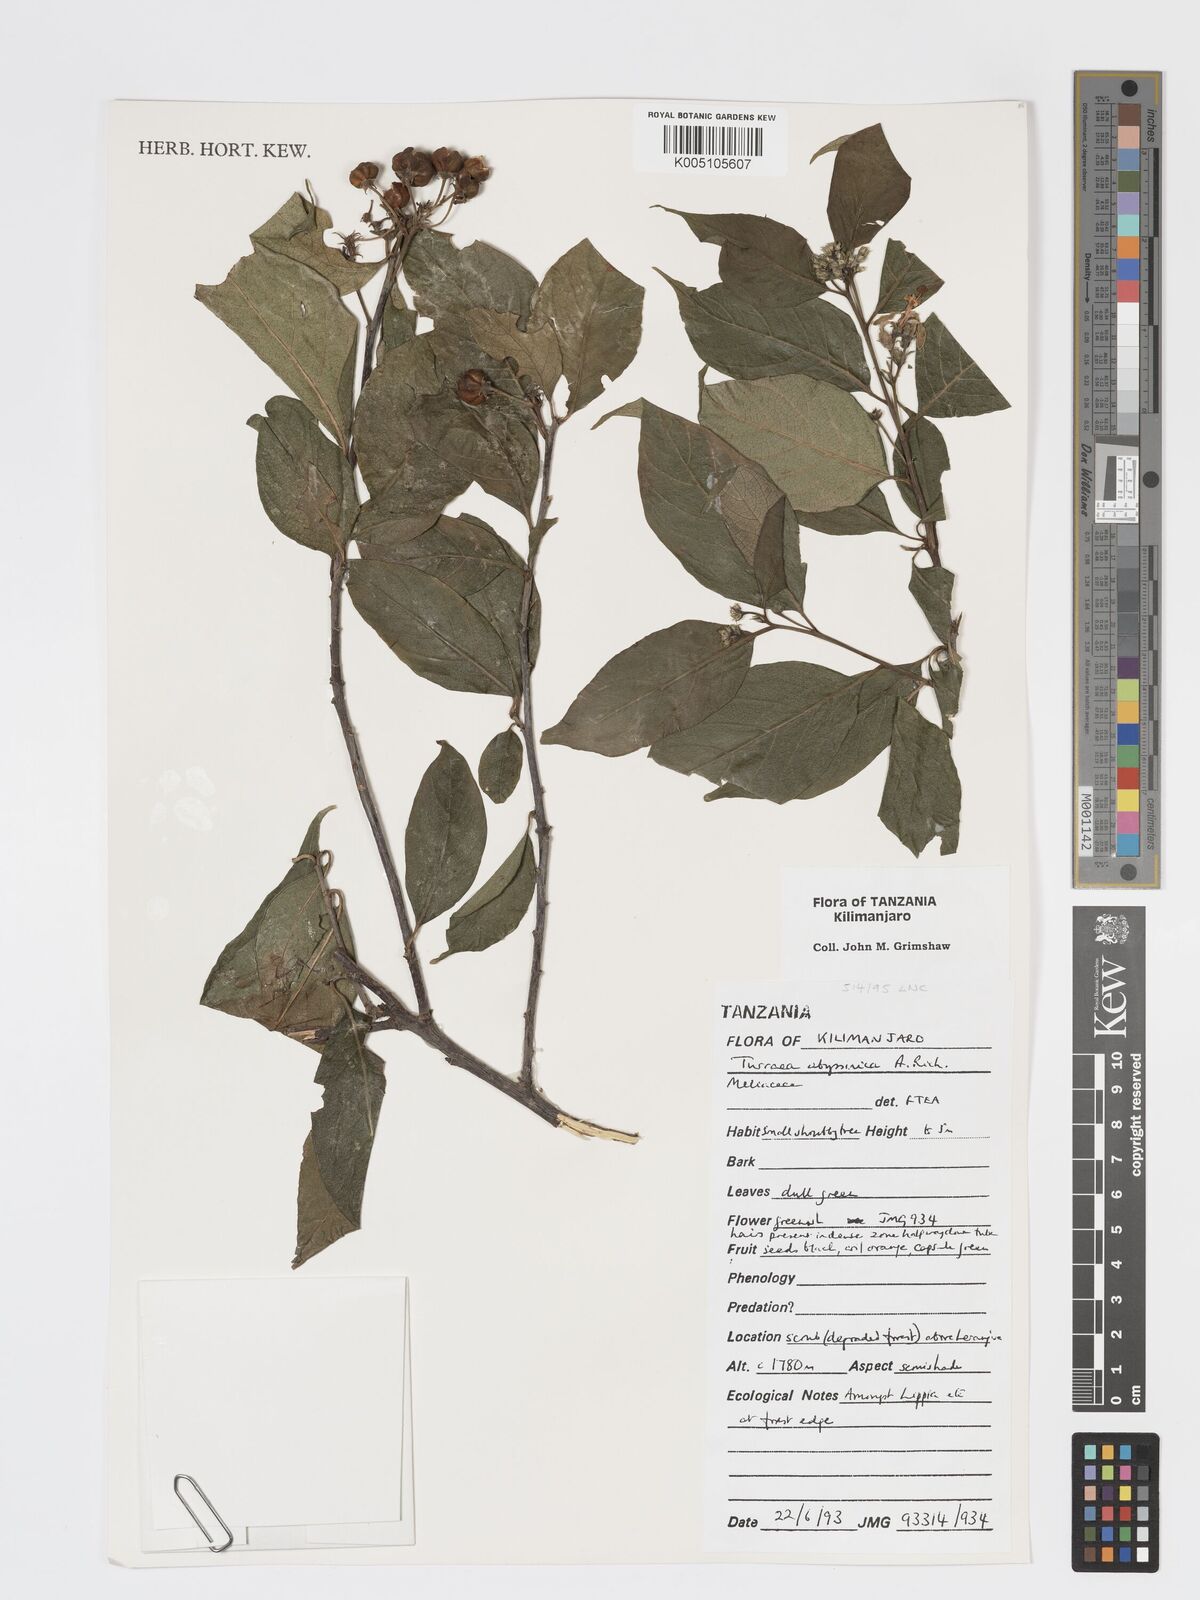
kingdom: Plantae
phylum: Tracheophyta
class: Magnoliopsida
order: Sapindales
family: Meliaceae
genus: Turraea
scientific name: Turraea abyssinica
